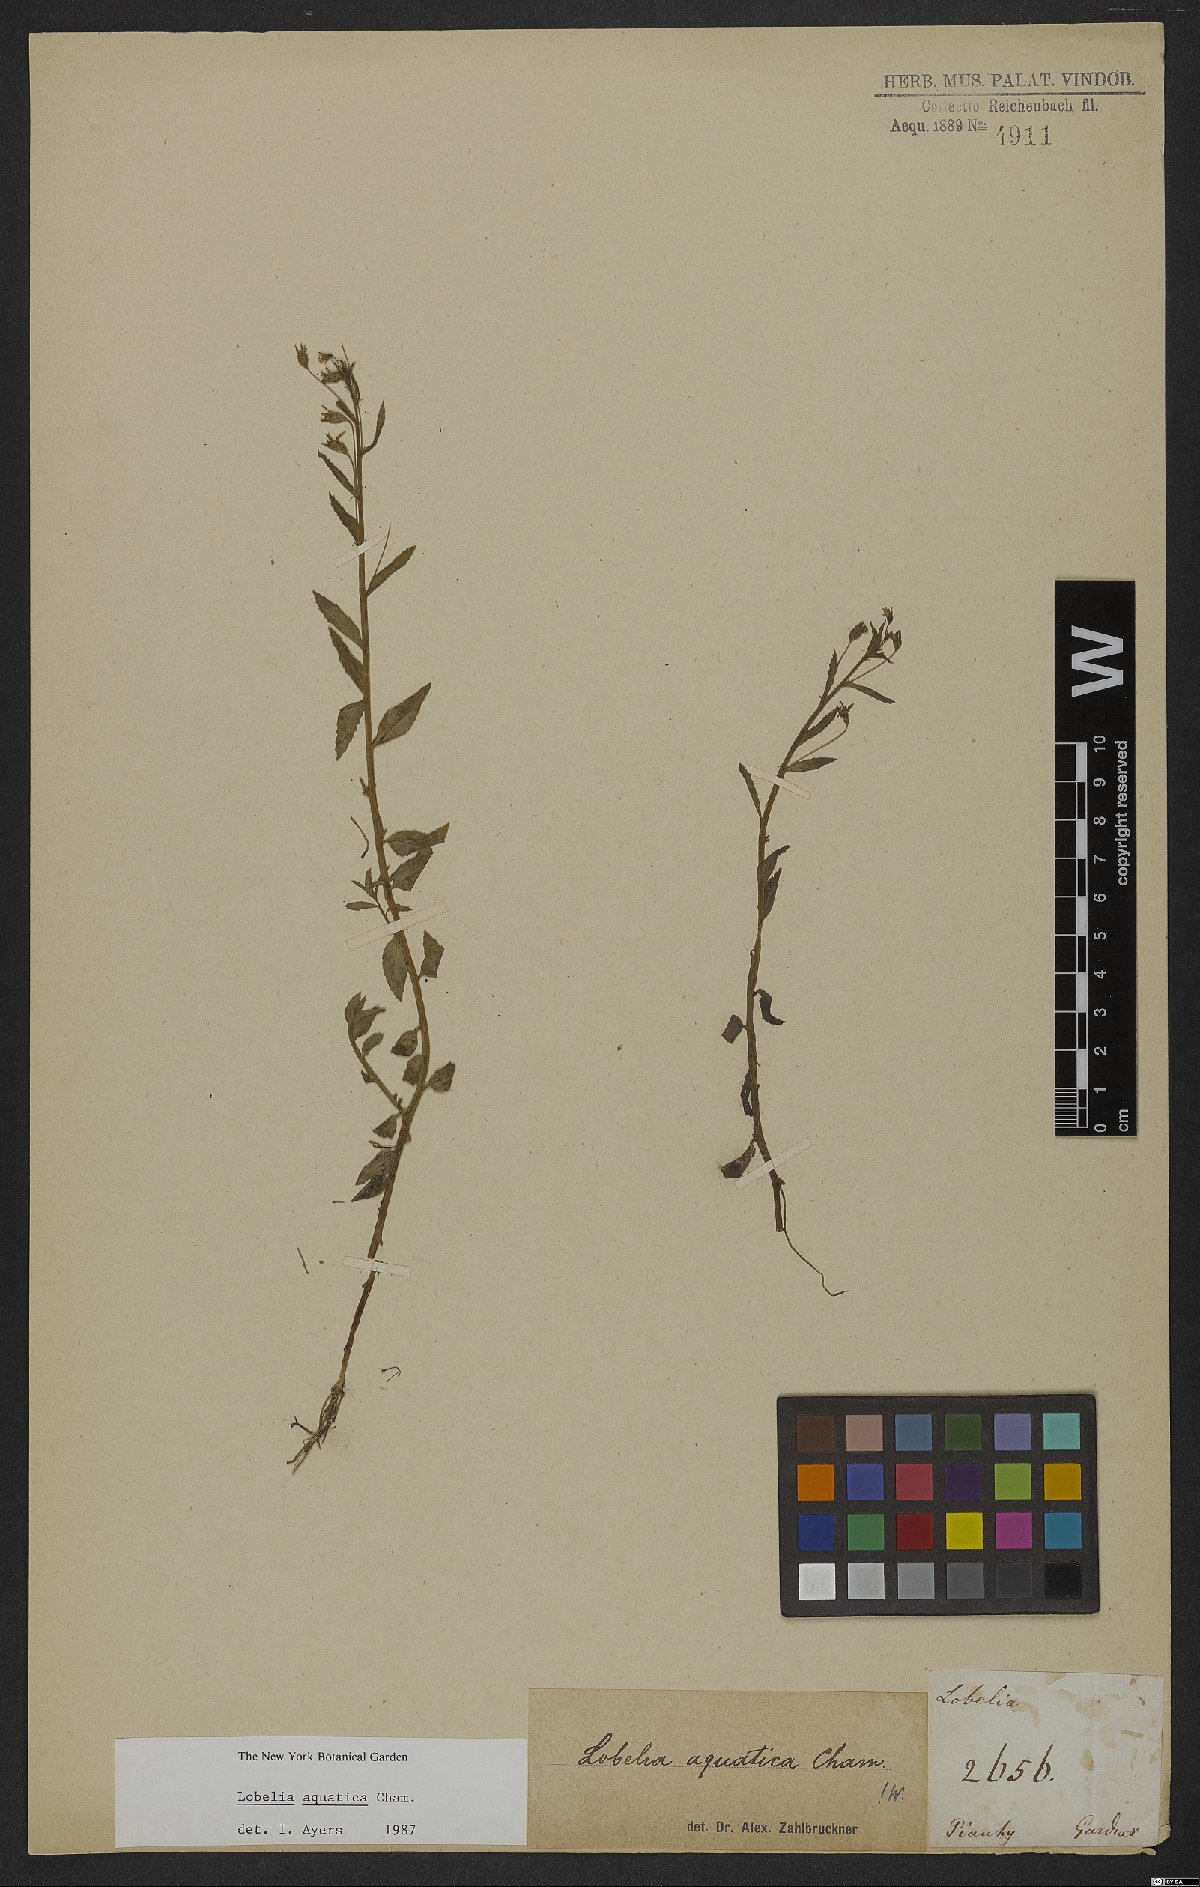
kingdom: Plantae
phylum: Tracheophyta
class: Magnoliopsida
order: Asterales
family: Campanulaceae
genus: Lobelia
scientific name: Lobelia aquatica
